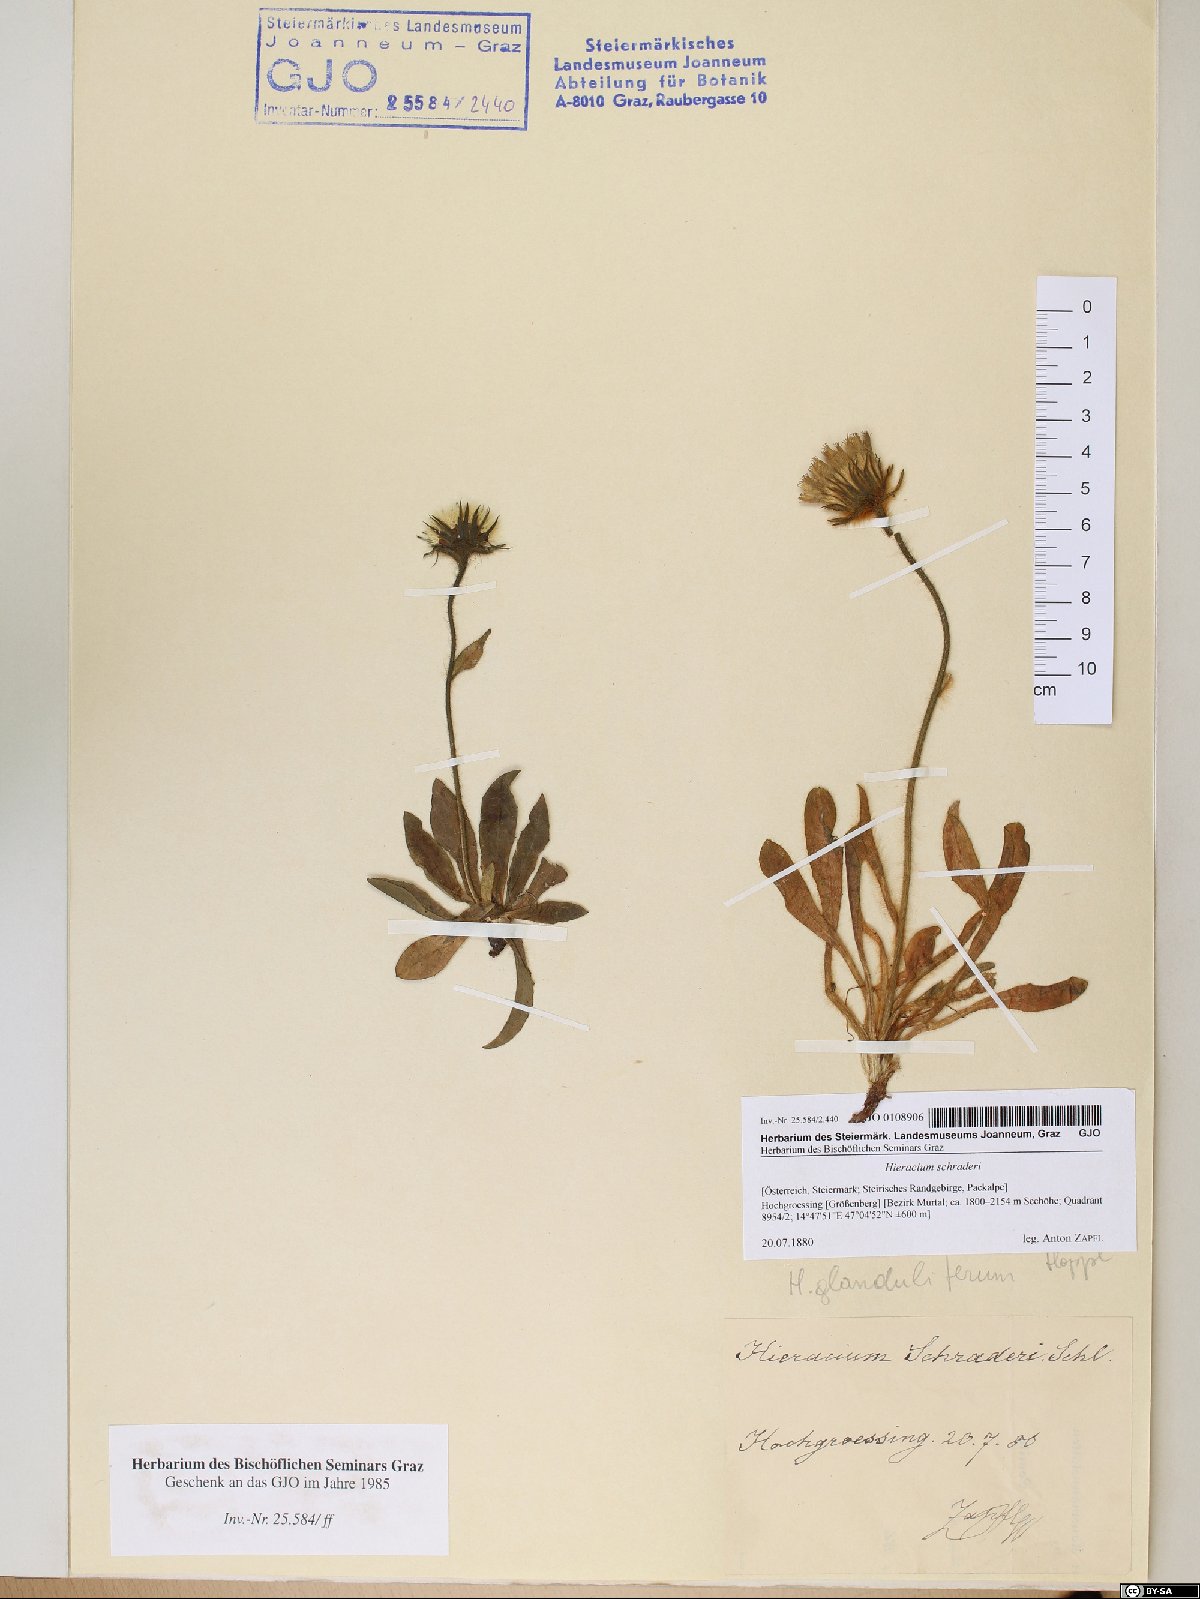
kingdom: Plantae
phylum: Tracheophyta
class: Magnoliopsida
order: Asterales
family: Asteraceae
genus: Hieracium
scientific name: Hieracium schraderi
